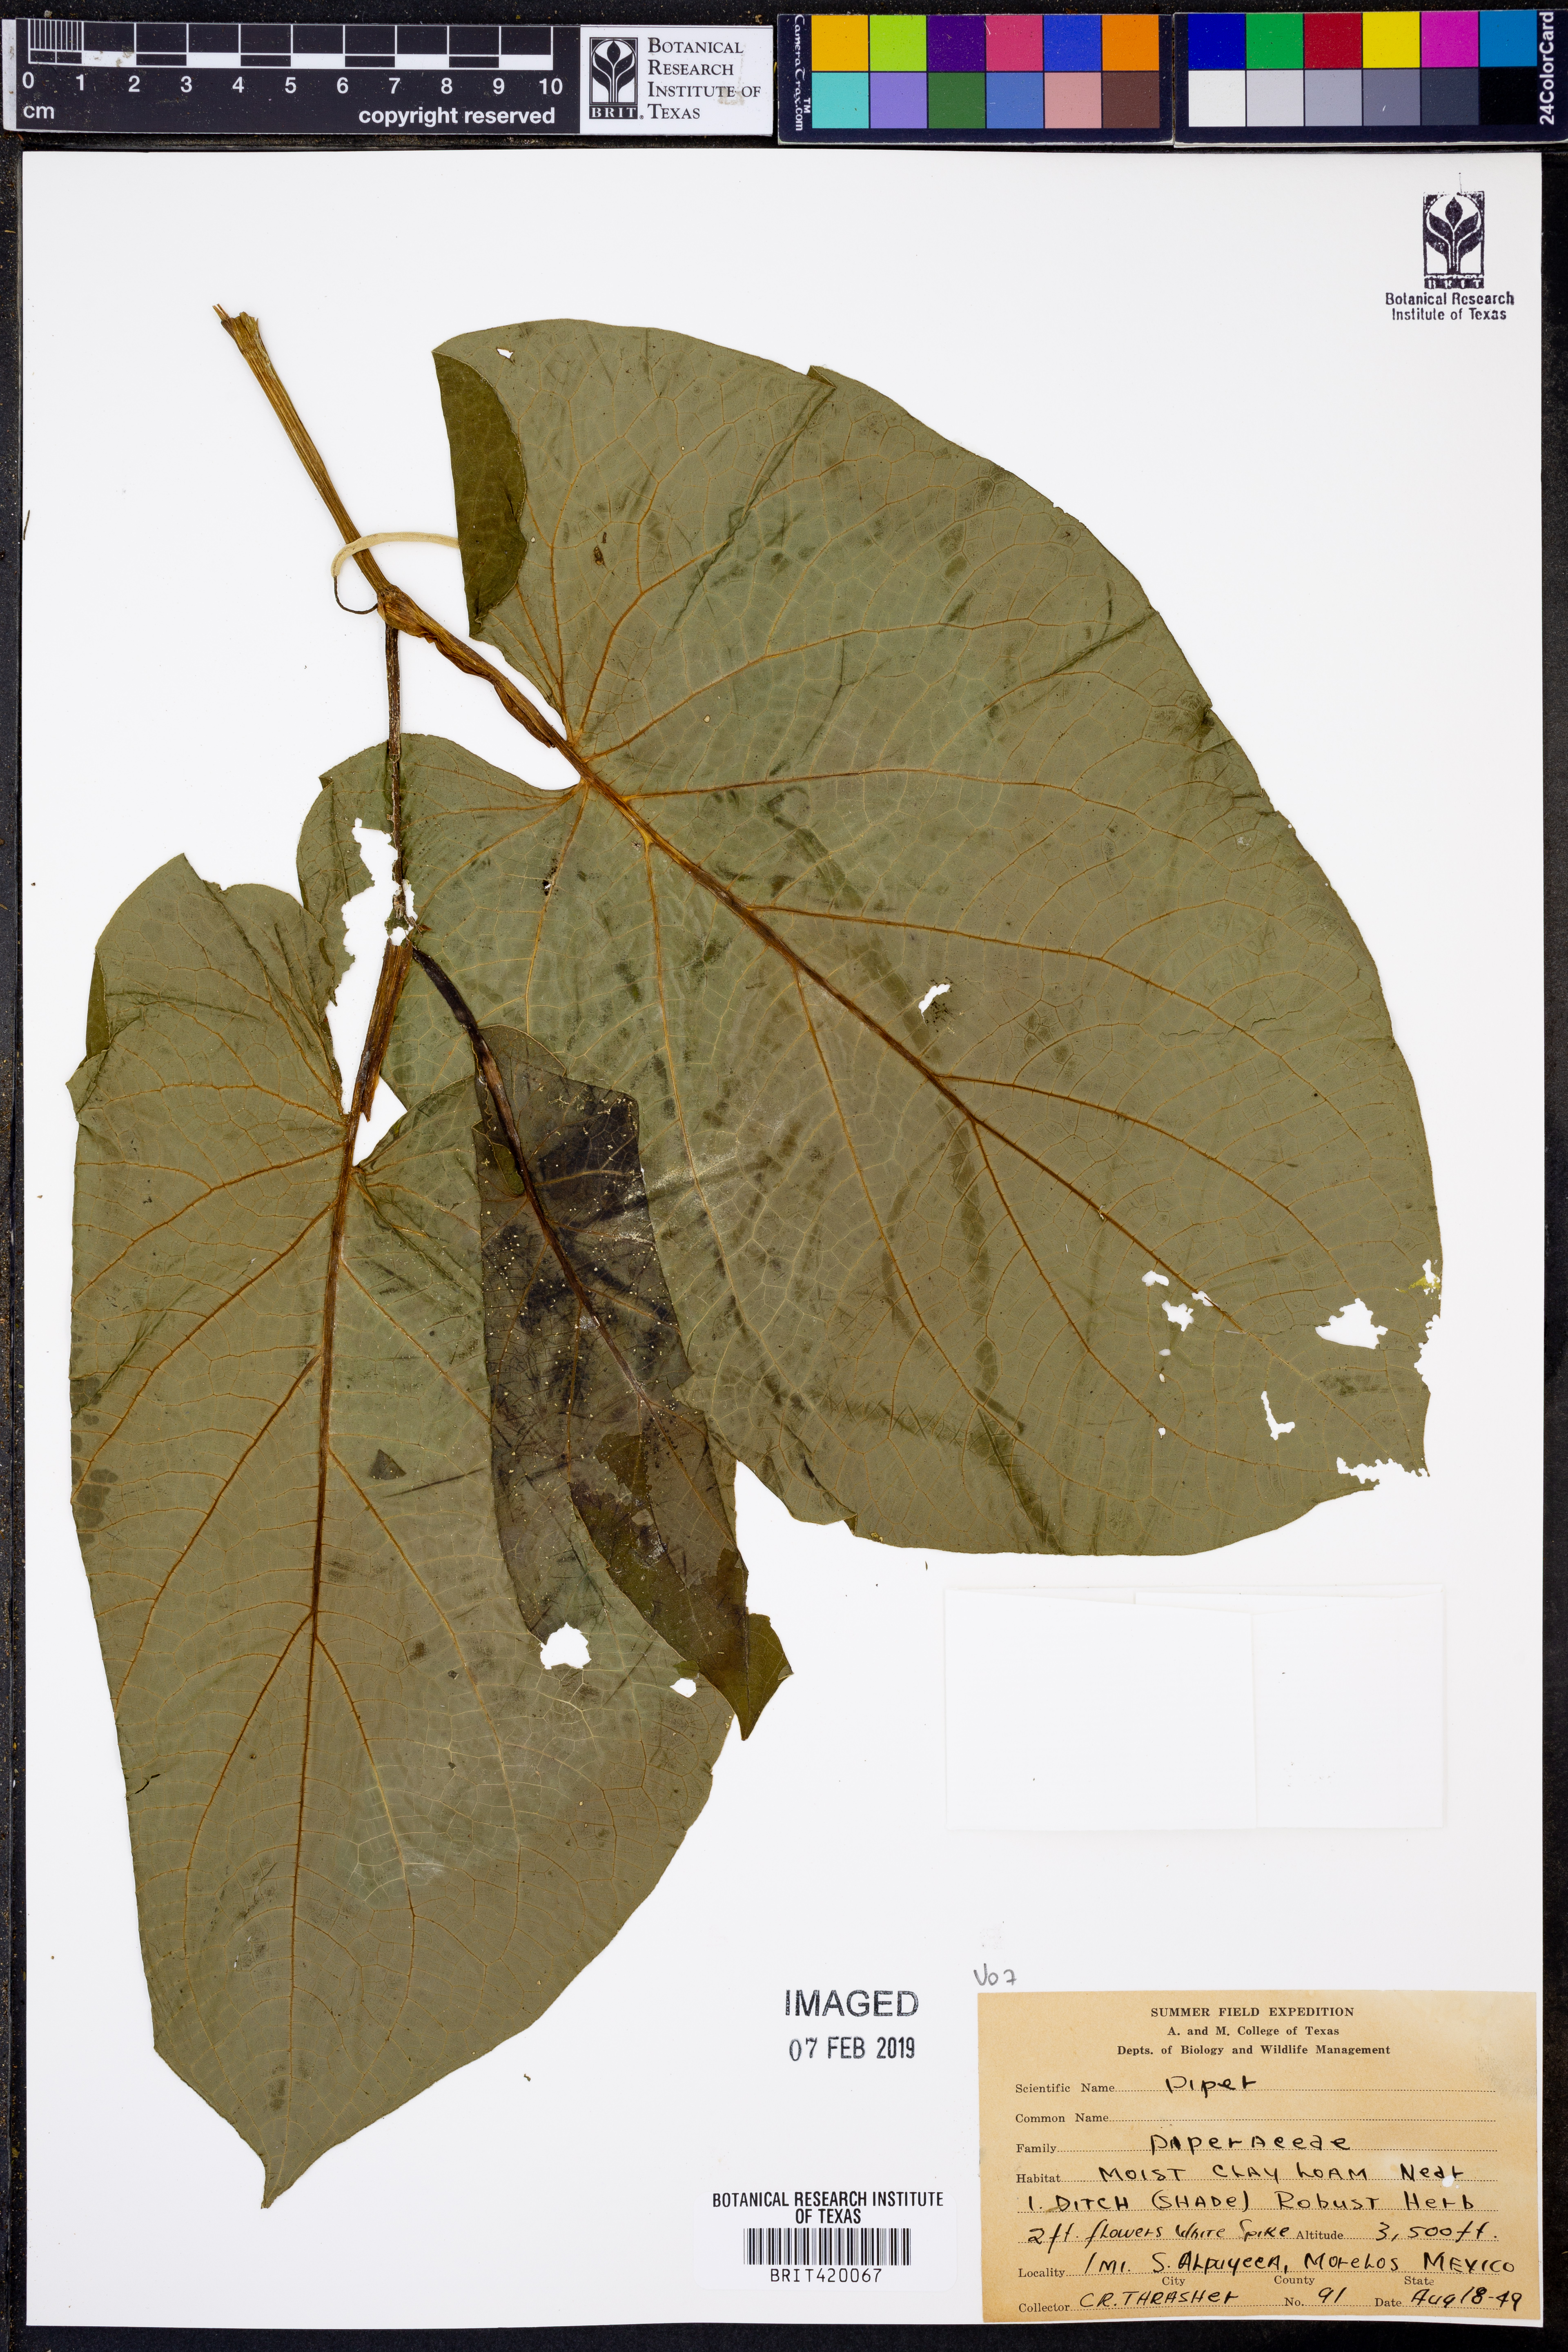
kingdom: Plantae
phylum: Tracheophyta
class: Magnoliopsida
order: Piperales
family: Piperaceae
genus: Piper
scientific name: Piper
